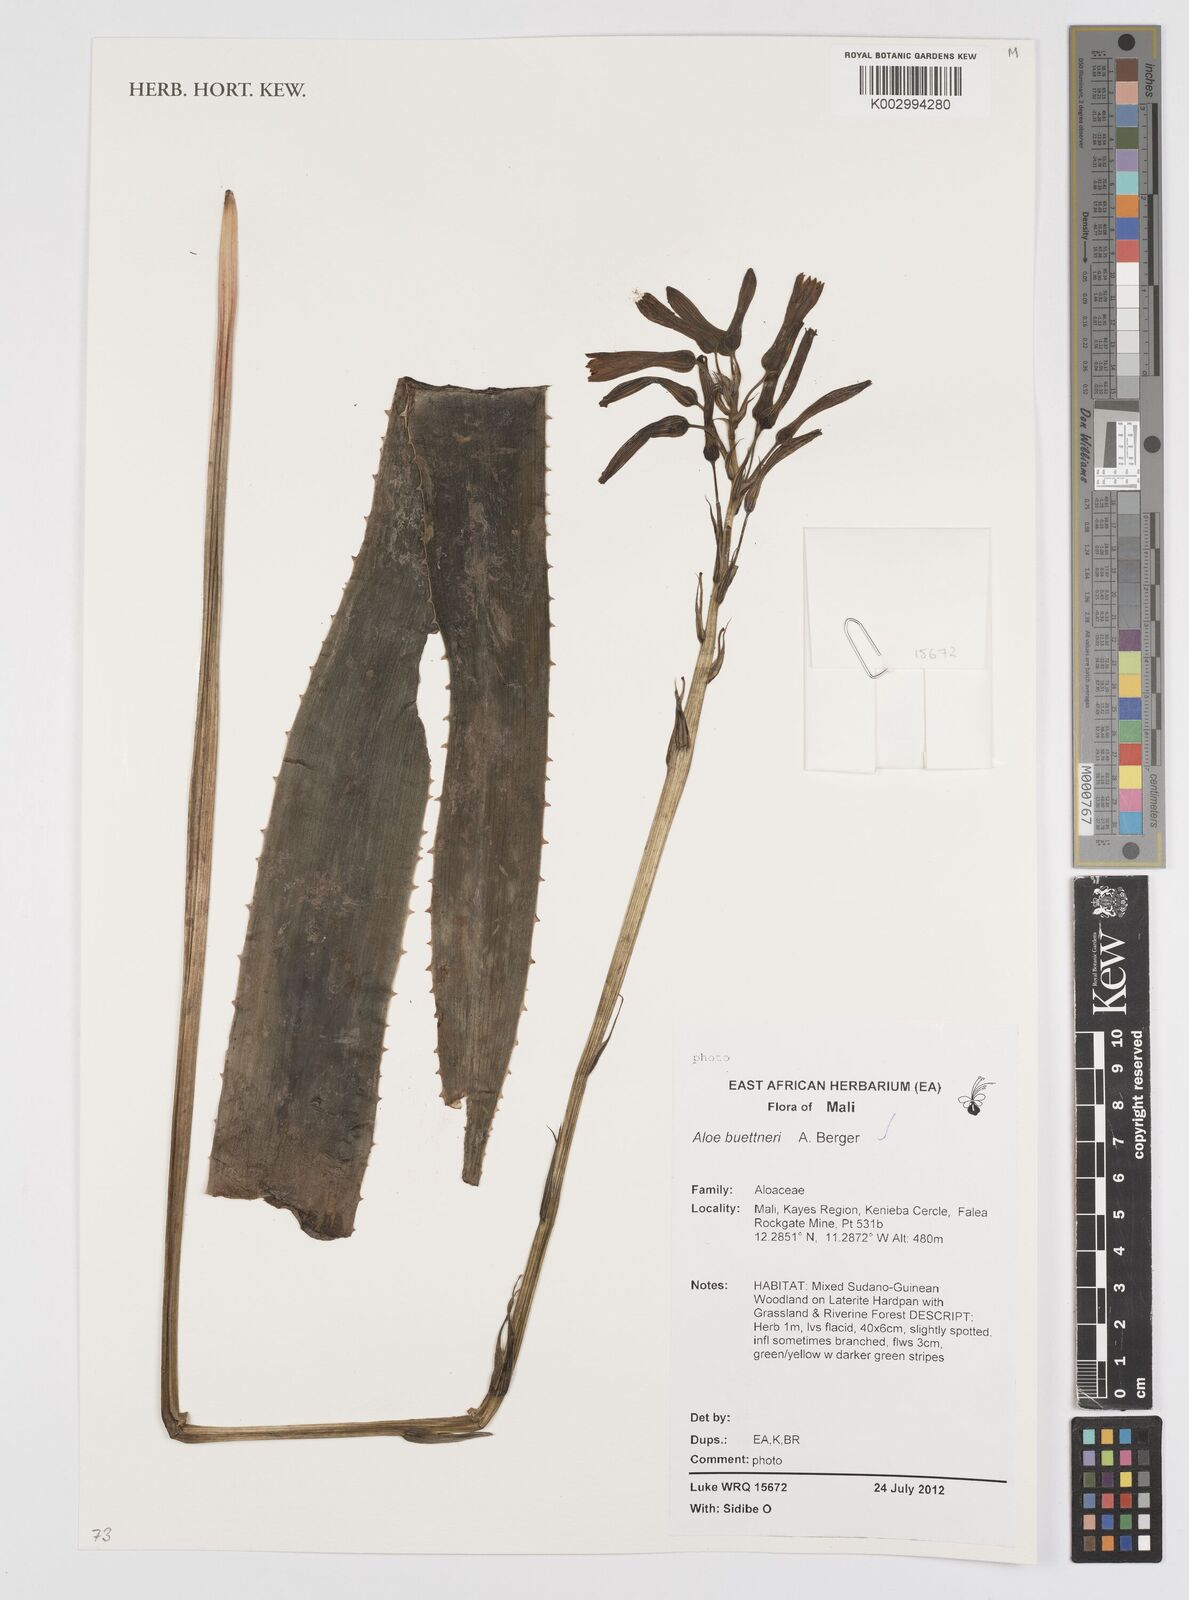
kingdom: Plantae
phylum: Tracheophyta
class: Liliopsida
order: Asparagales
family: Asphodelaceae
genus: Aloe
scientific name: Aloe buettneri
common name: West african aloe
